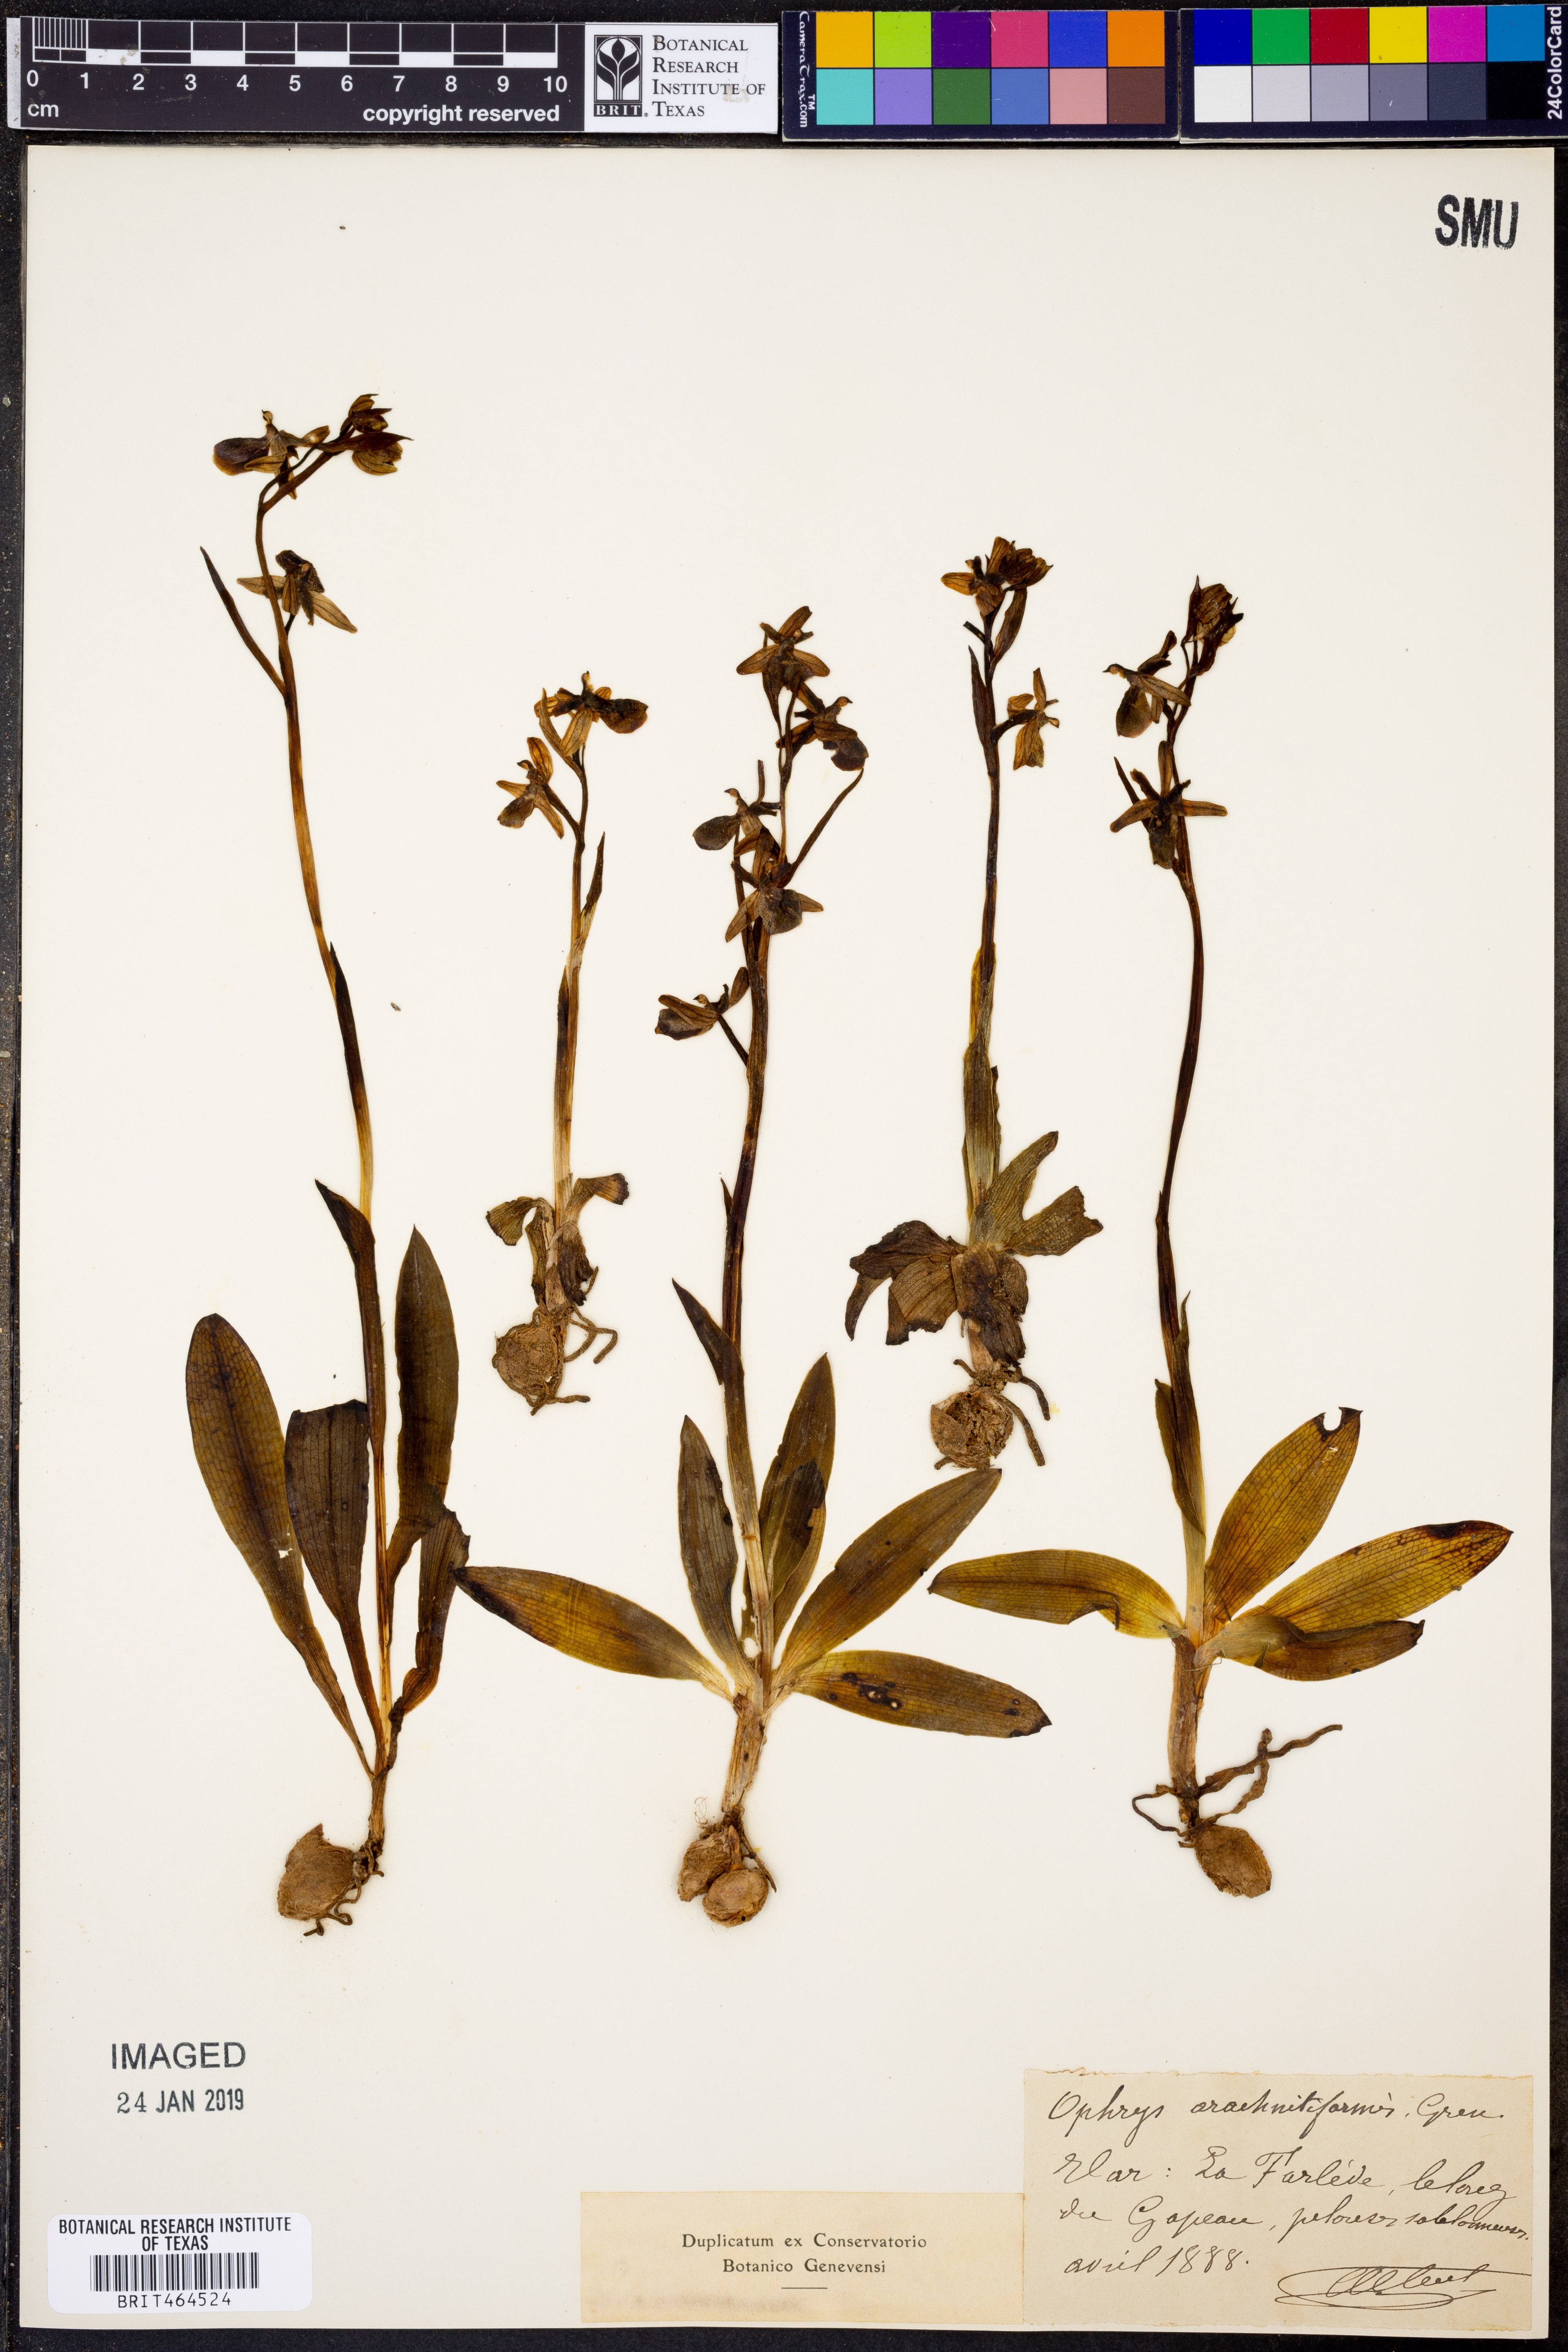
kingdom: Plantae
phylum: Tracheophyta
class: Liliopsida
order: Asparagales
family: Orchidaceae
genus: Ophrys
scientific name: Ophrys arachnitiformis
